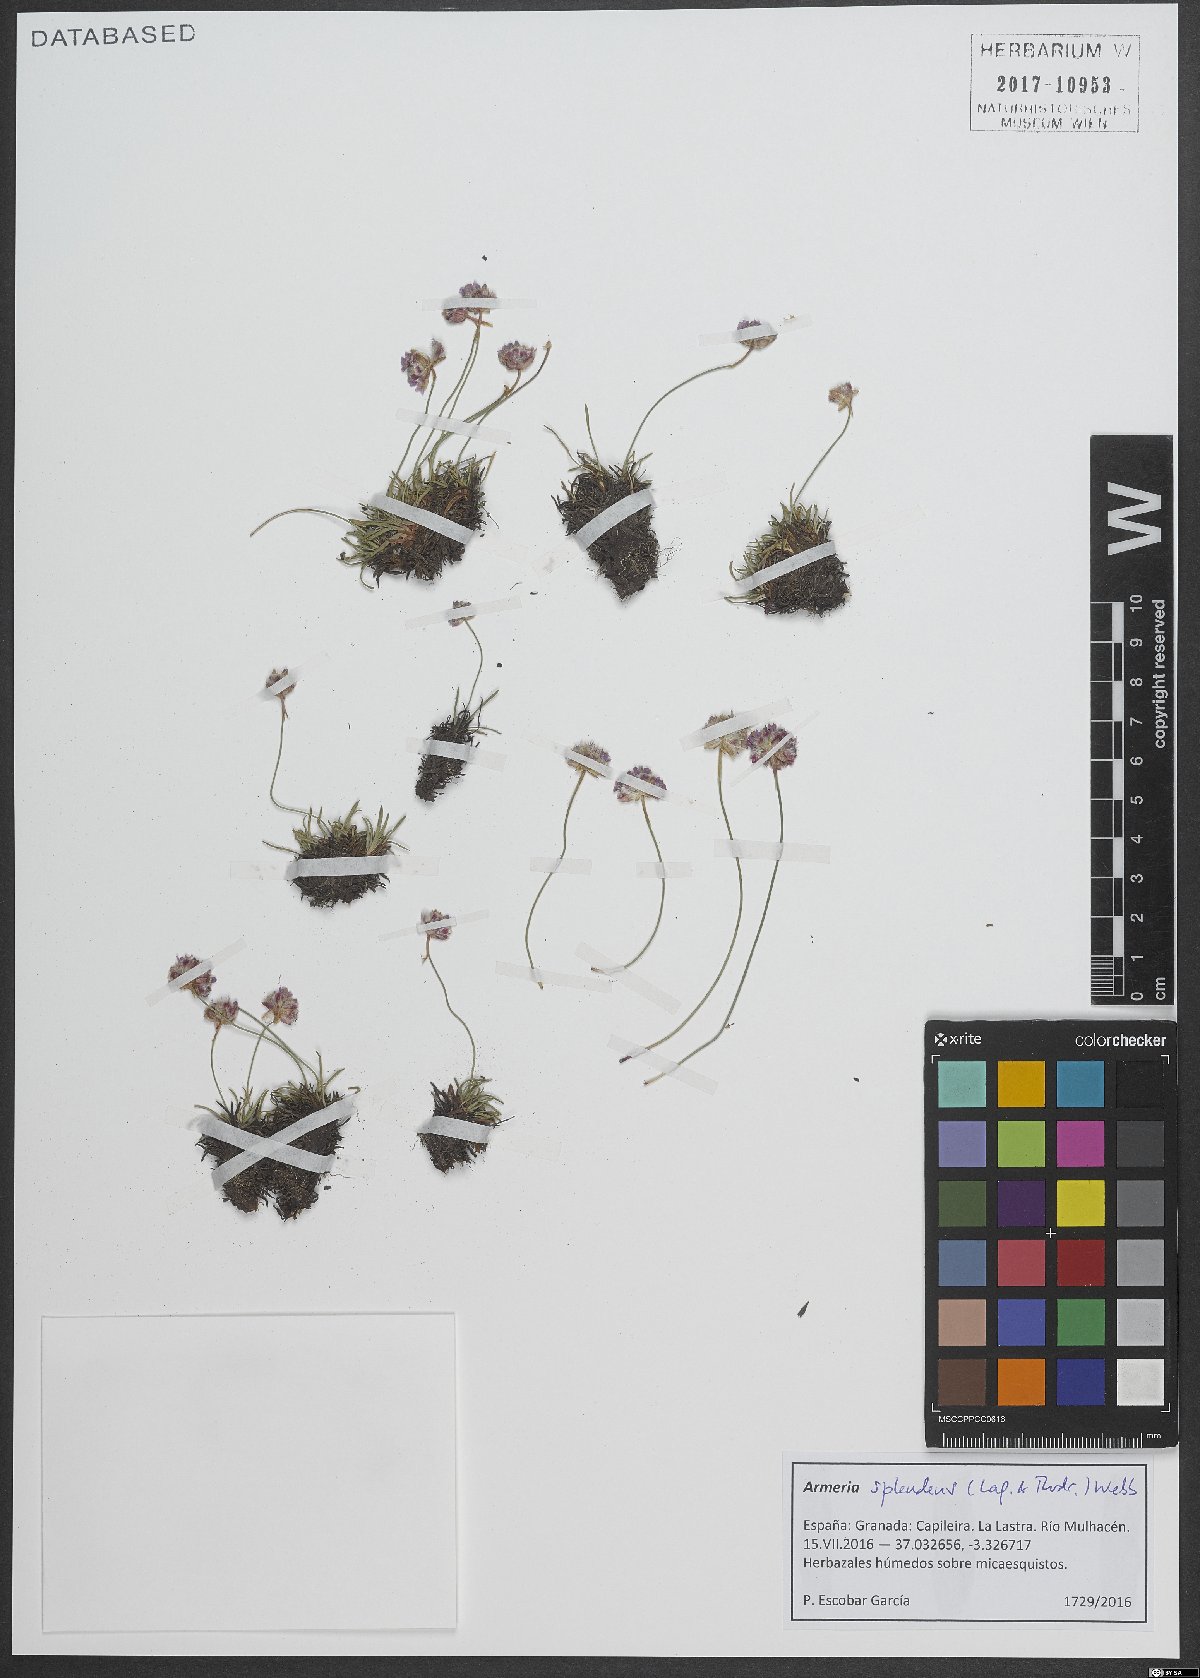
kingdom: Plantae
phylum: Tracheophyta
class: Magnoliopsida
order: Caryophyllales
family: Plumbaginaceae
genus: Armeria
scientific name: Armeria splendens
